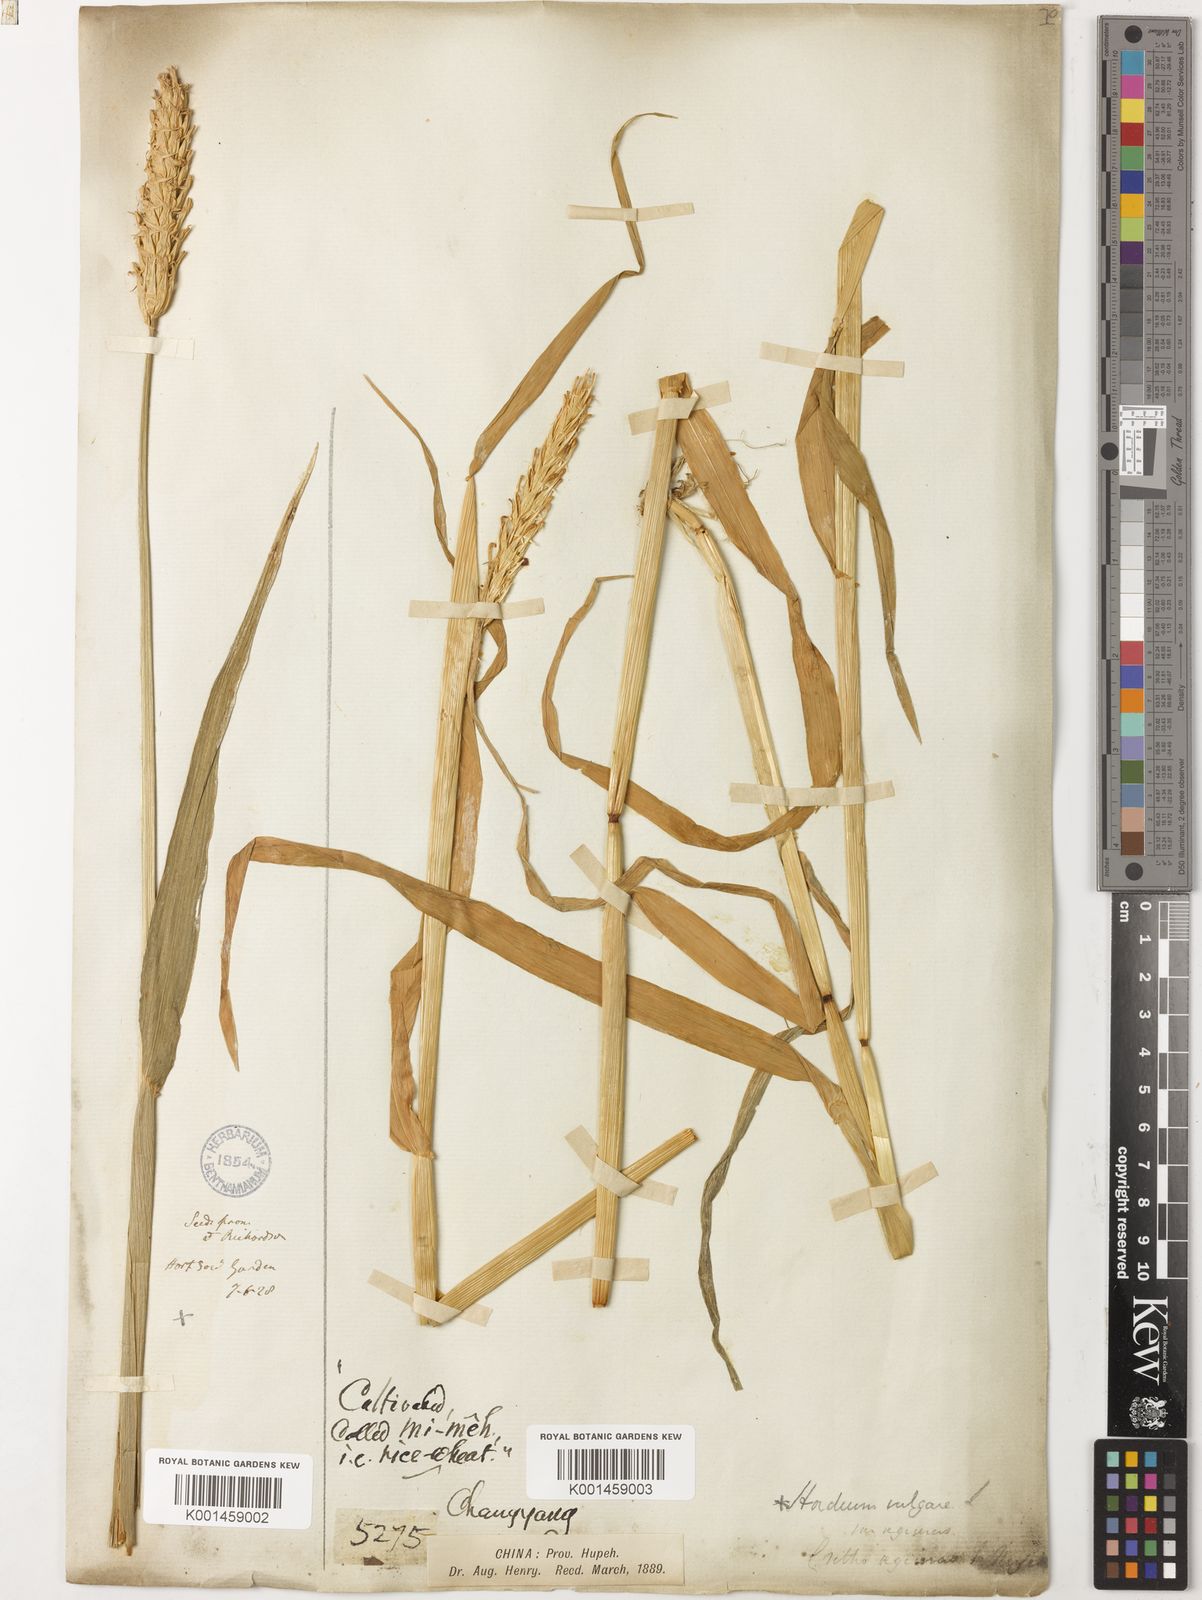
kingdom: Plantae
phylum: Tracheophyta
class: Liliopsida
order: Poales
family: Poaceae
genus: Hordeum
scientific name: Hordeum vulgare
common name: Common barley
